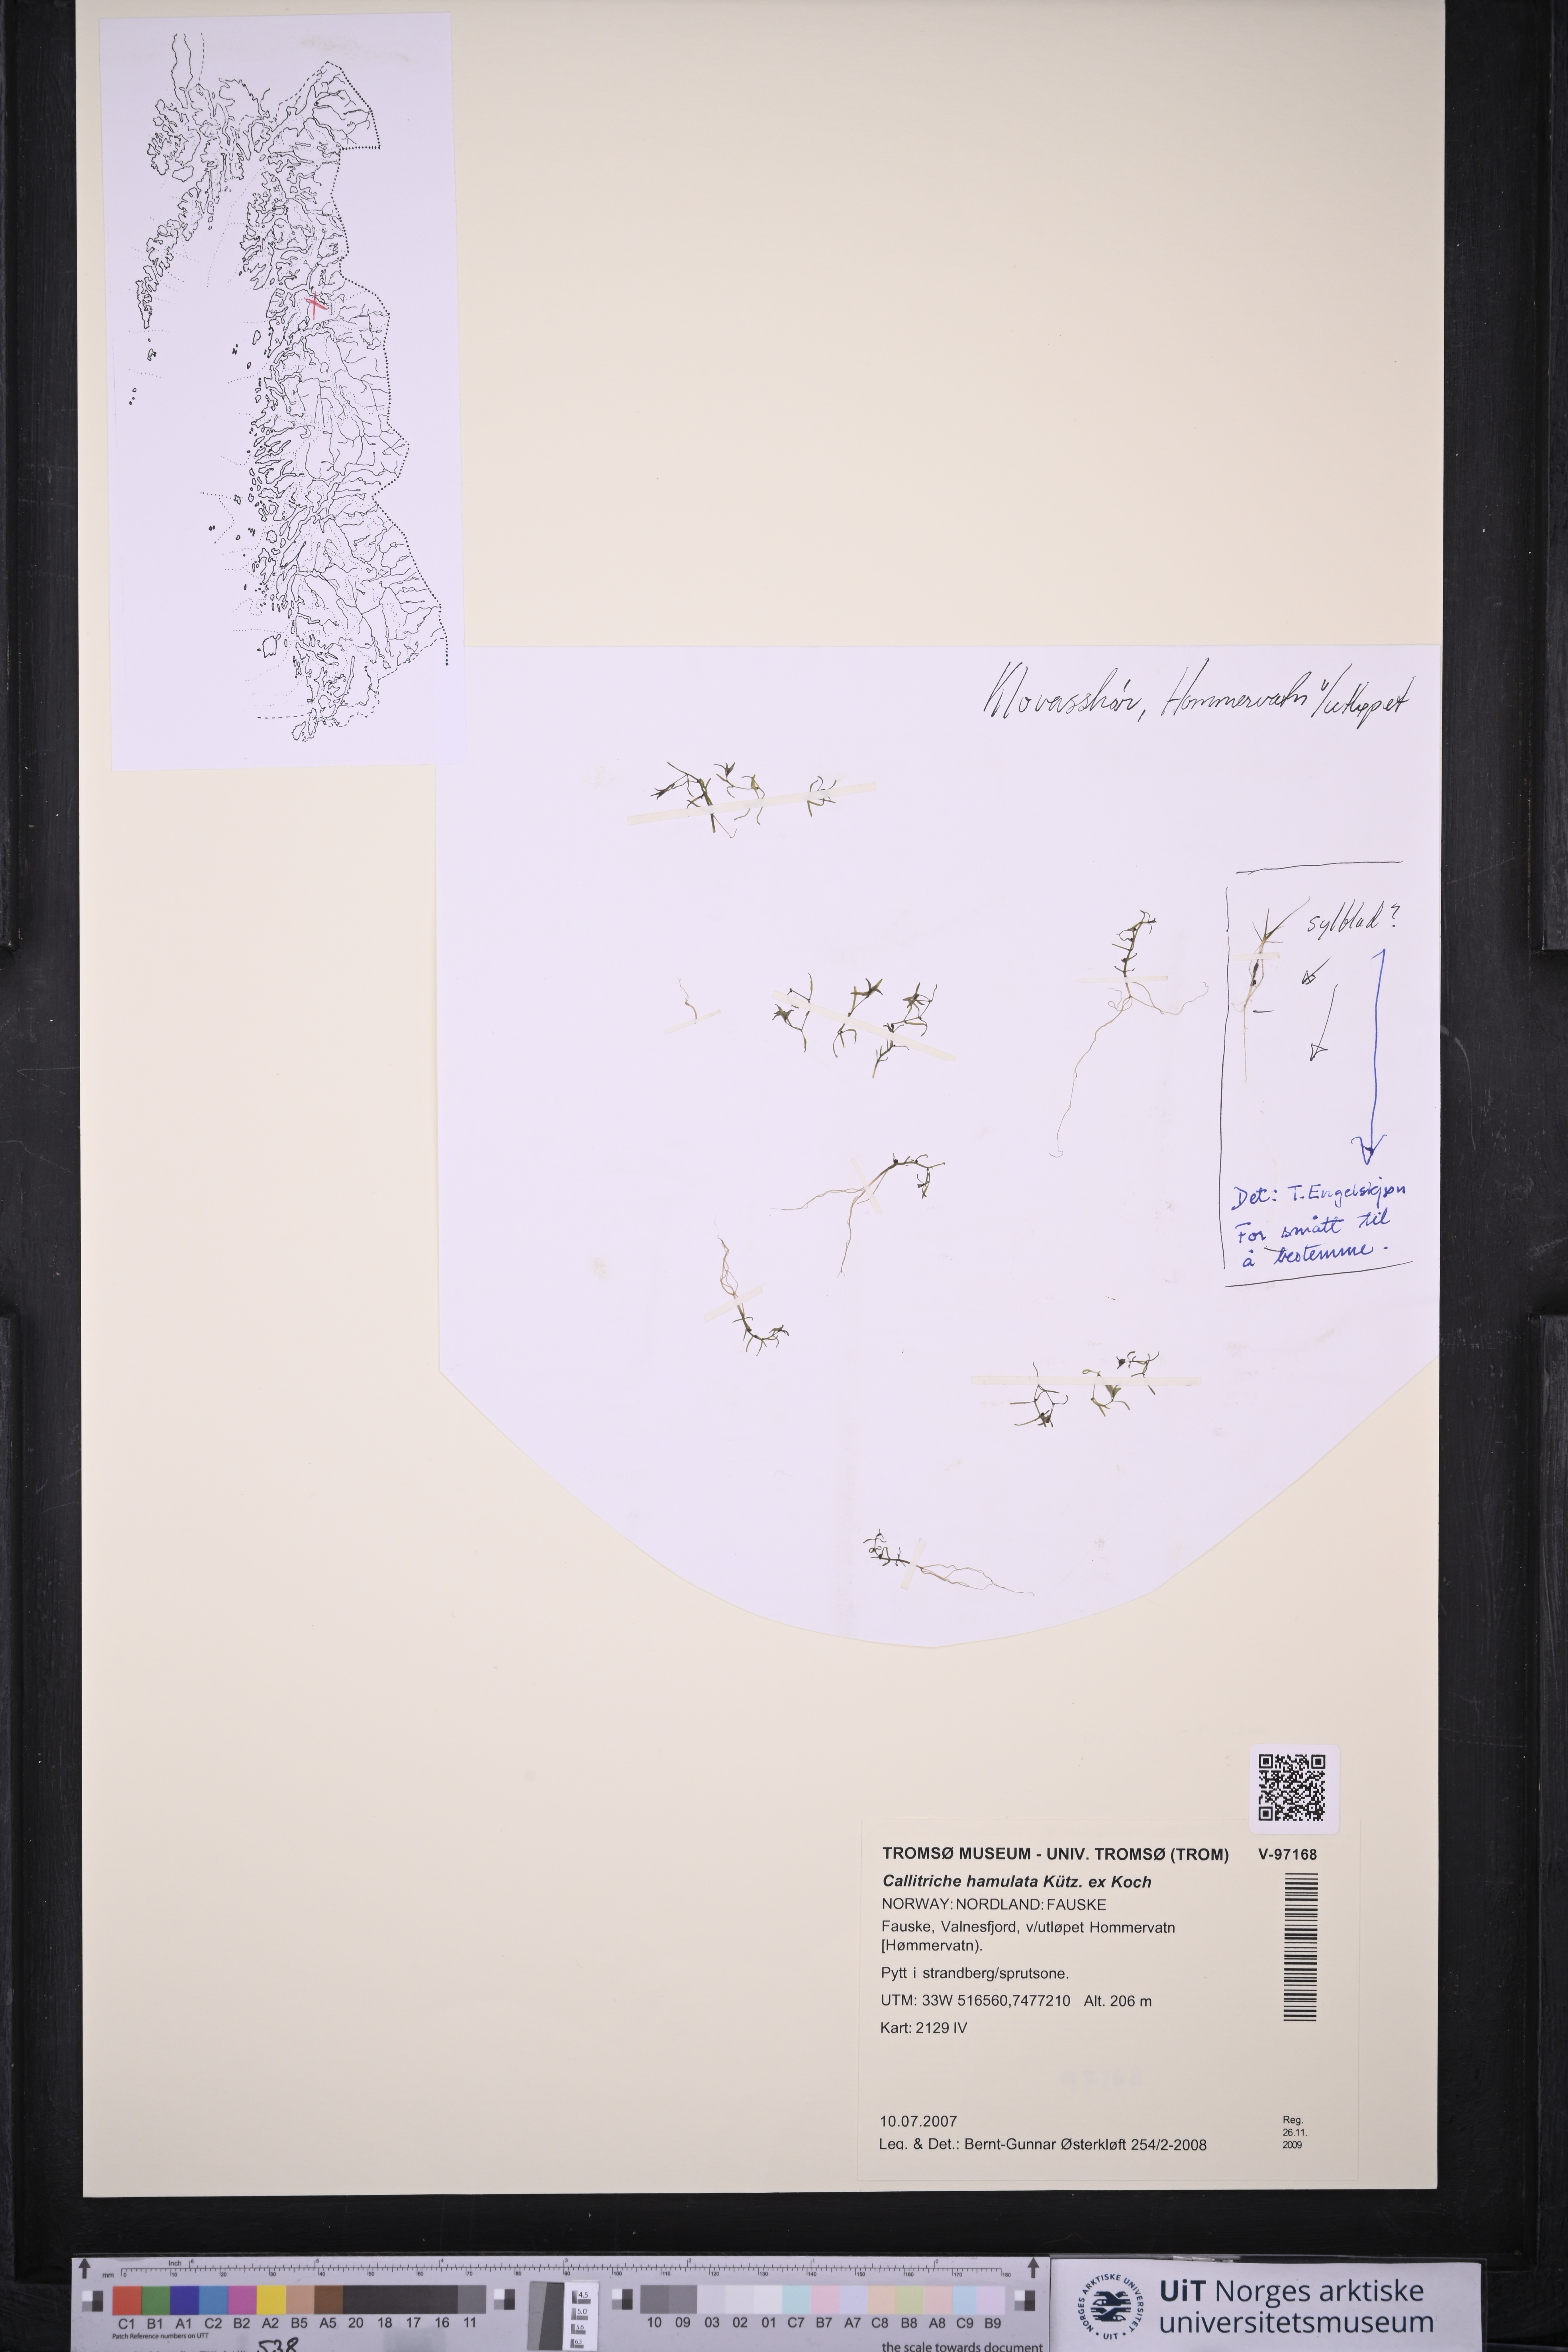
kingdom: Plantae
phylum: Tracheophyta
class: Magnoliopsida
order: Lamiales
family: Plantaginaceae
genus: Callitriche
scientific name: Callitriche hamulata
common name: Intermediate water-starwort
